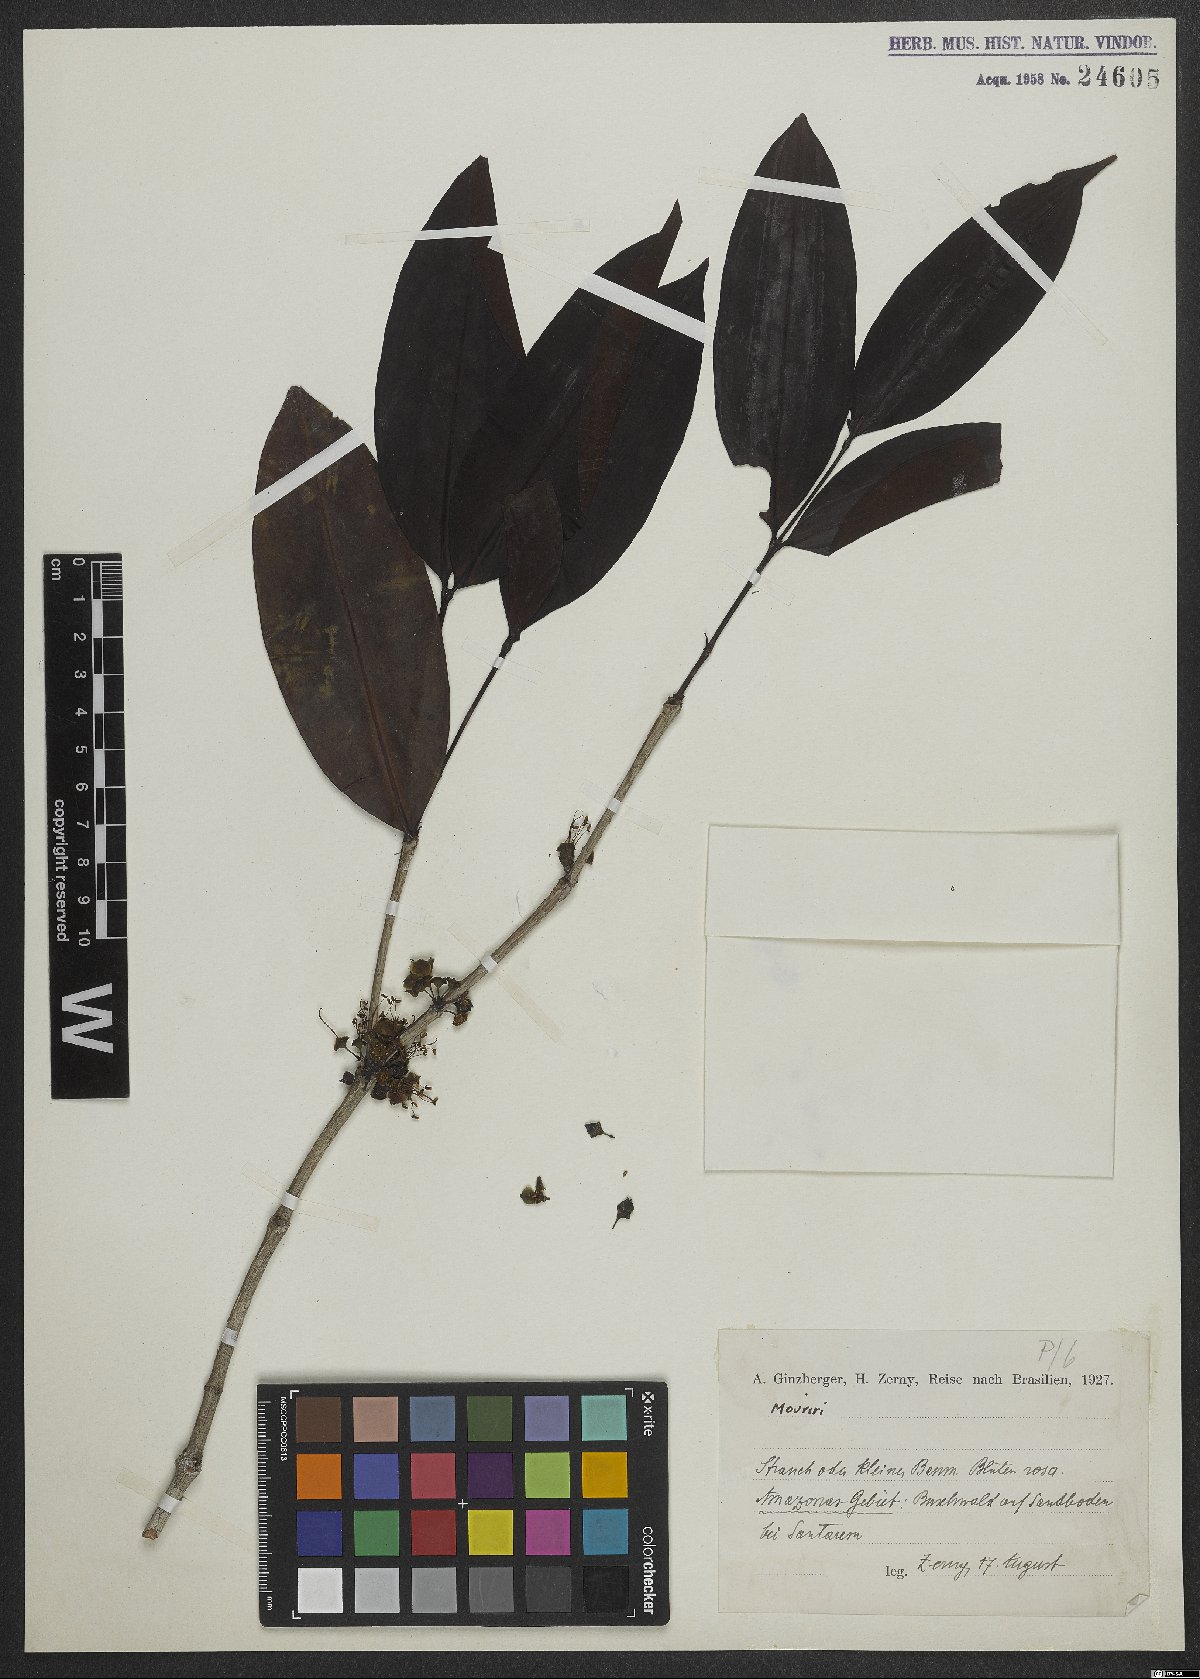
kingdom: Plantae
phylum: Tracheophyta
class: Magnoliopsida
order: Myrtales
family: Melastomataceae
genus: Mouriri
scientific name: Mouriri
